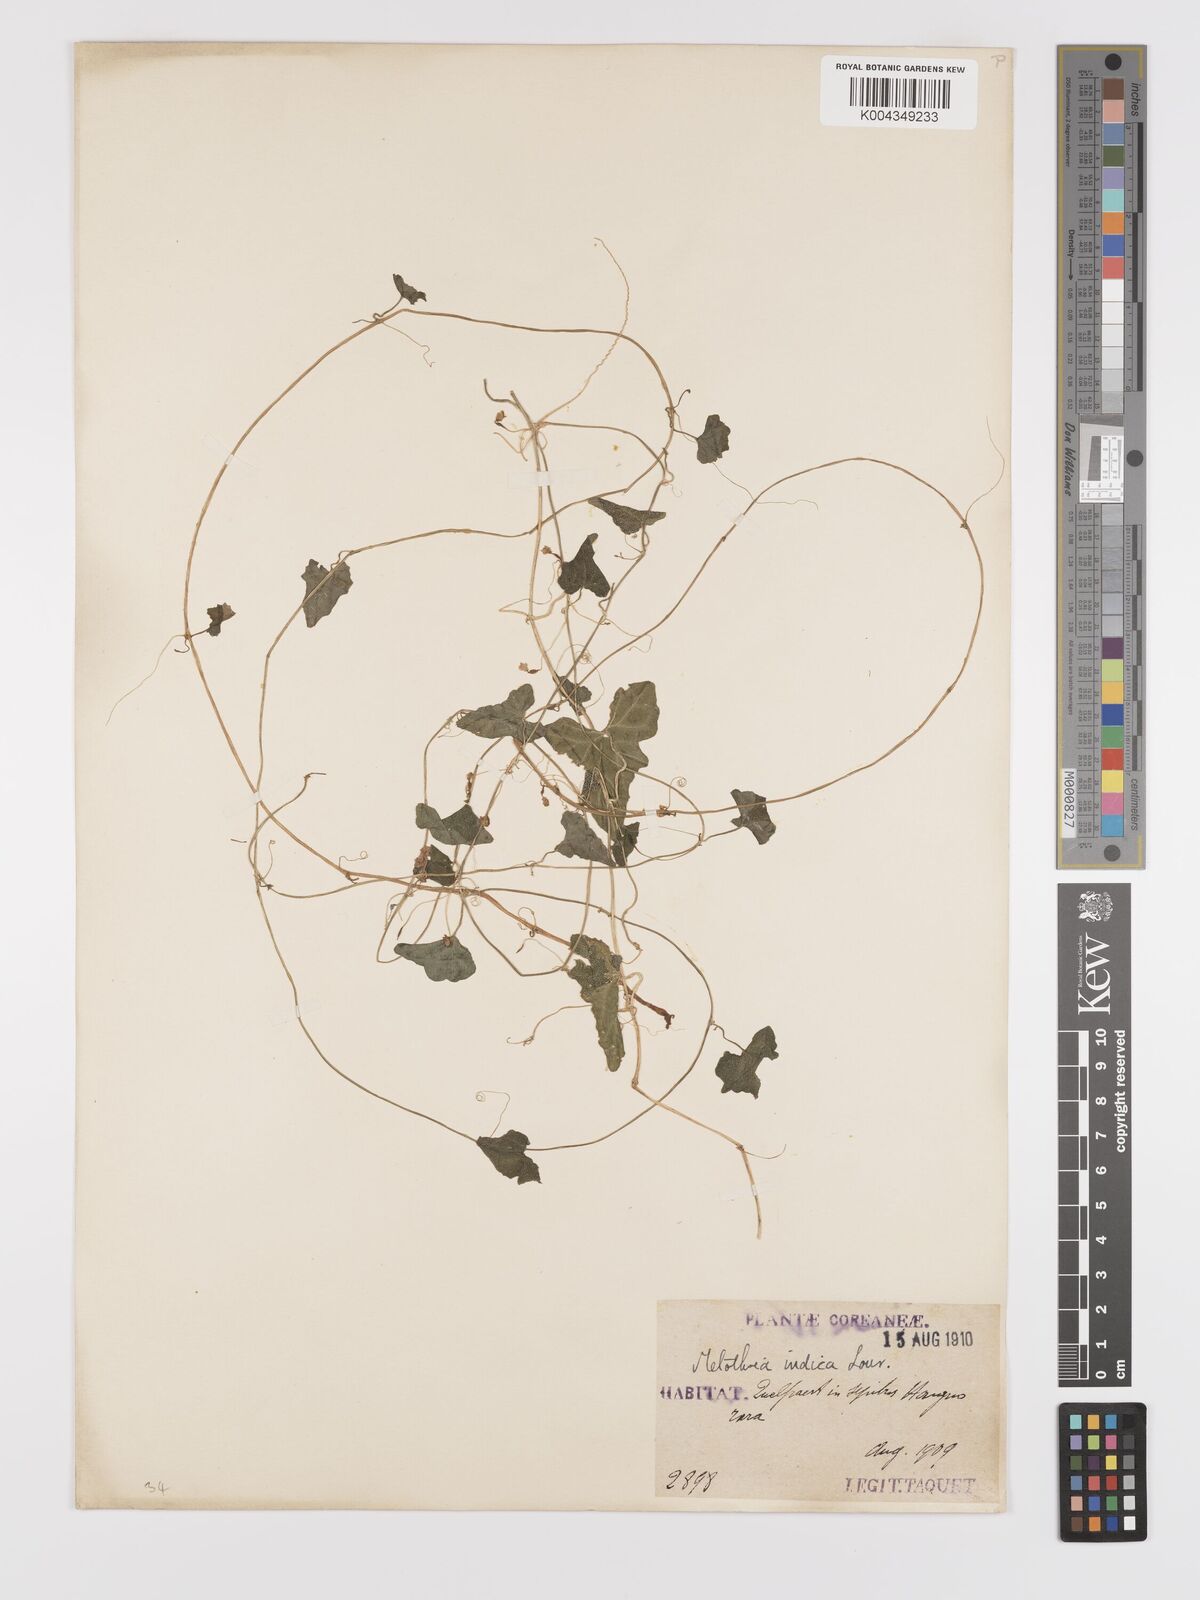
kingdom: Plantae
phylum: Tracheophyta
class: Magnoliopsida
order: Cucurbitales
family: Cucurbitaceae
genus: Zehneria
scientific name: Zehneria japonica
